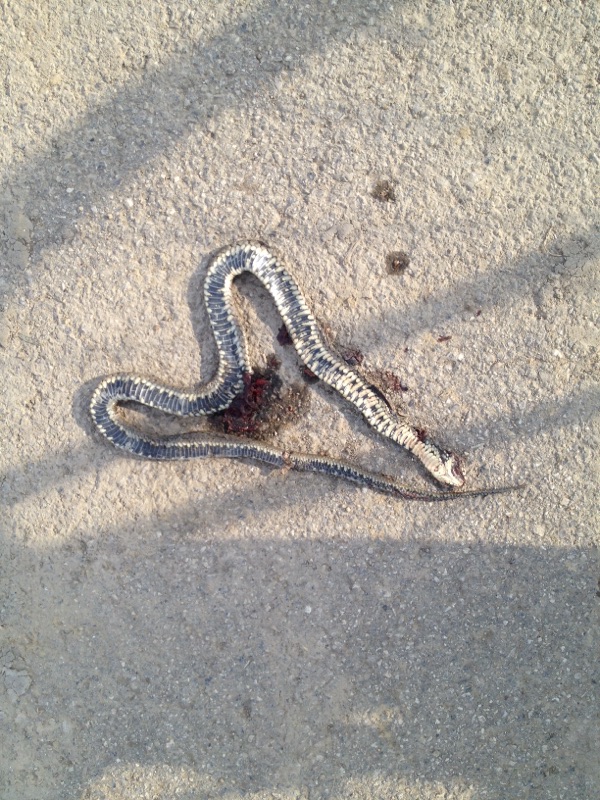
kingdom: Animalia
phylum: Chordata
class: Squamata
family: Colubridae
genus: Natrix
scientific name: Natrix natrix
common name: Grass snake
